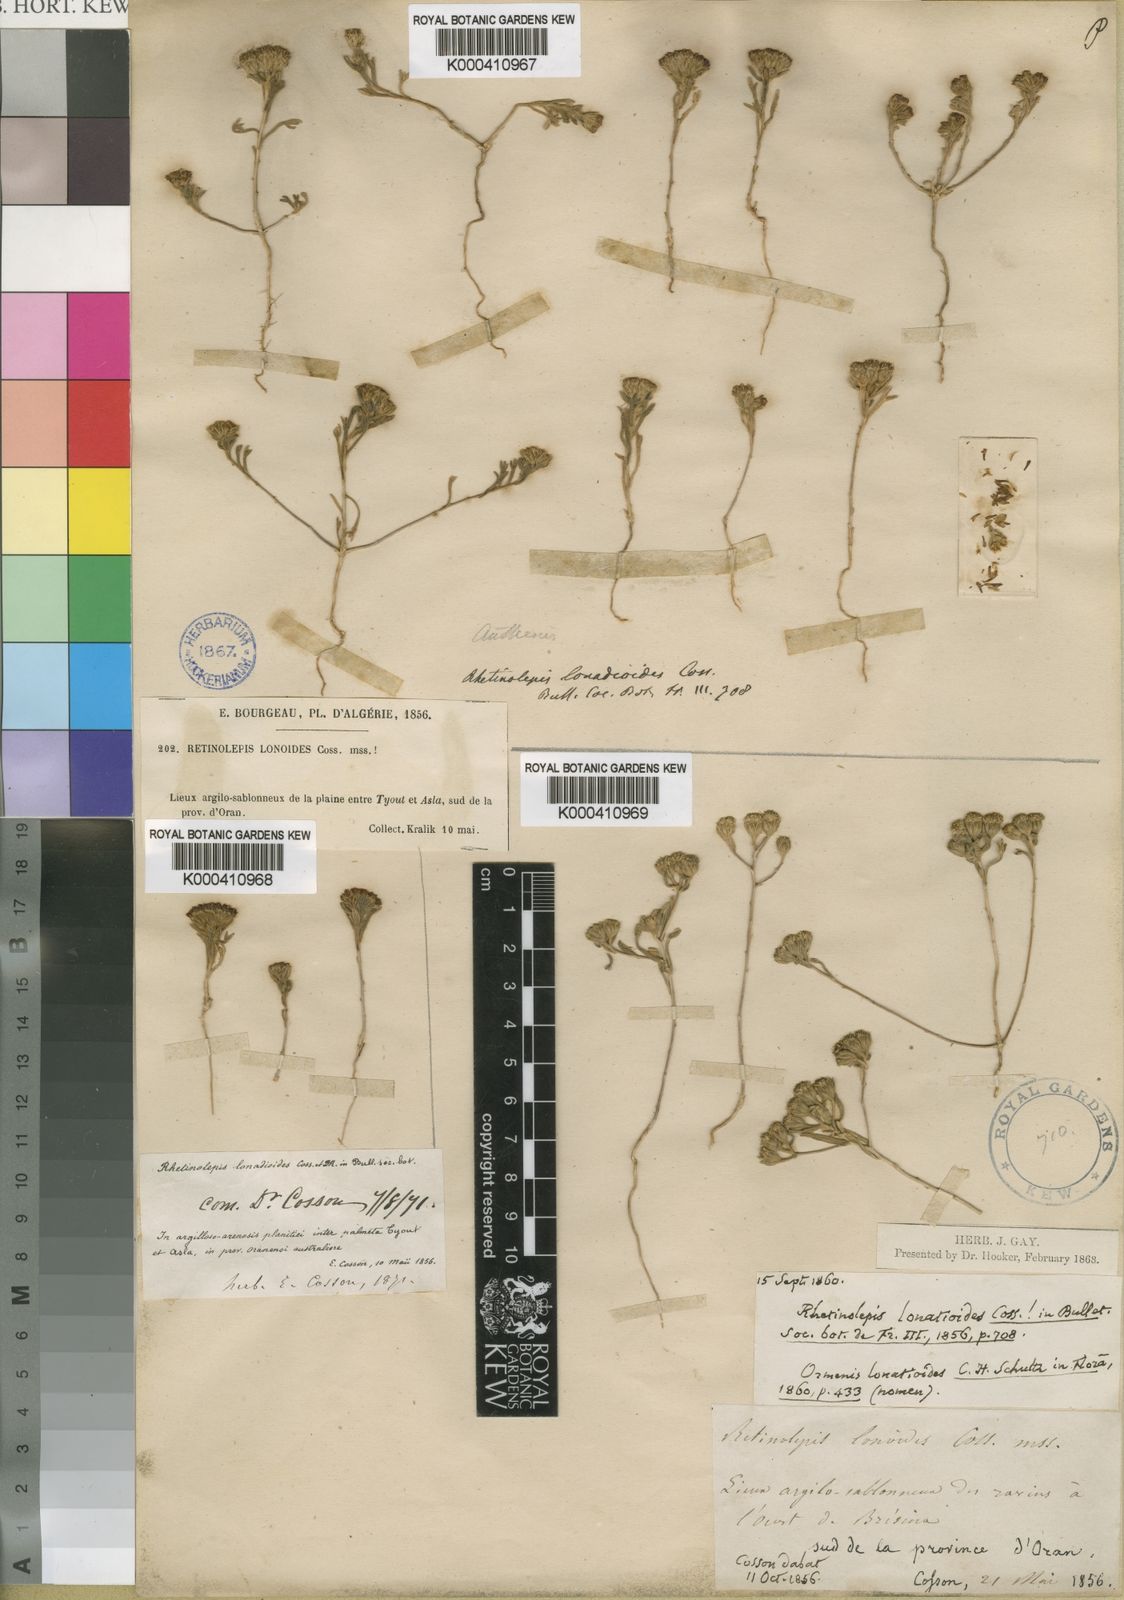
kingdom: Plantae
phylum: Tracheophyta
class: Magnoliopsida
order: Asterales
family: Asteraceae
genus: Rhetinolepis
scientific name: Rhetinolepis lonadioides
